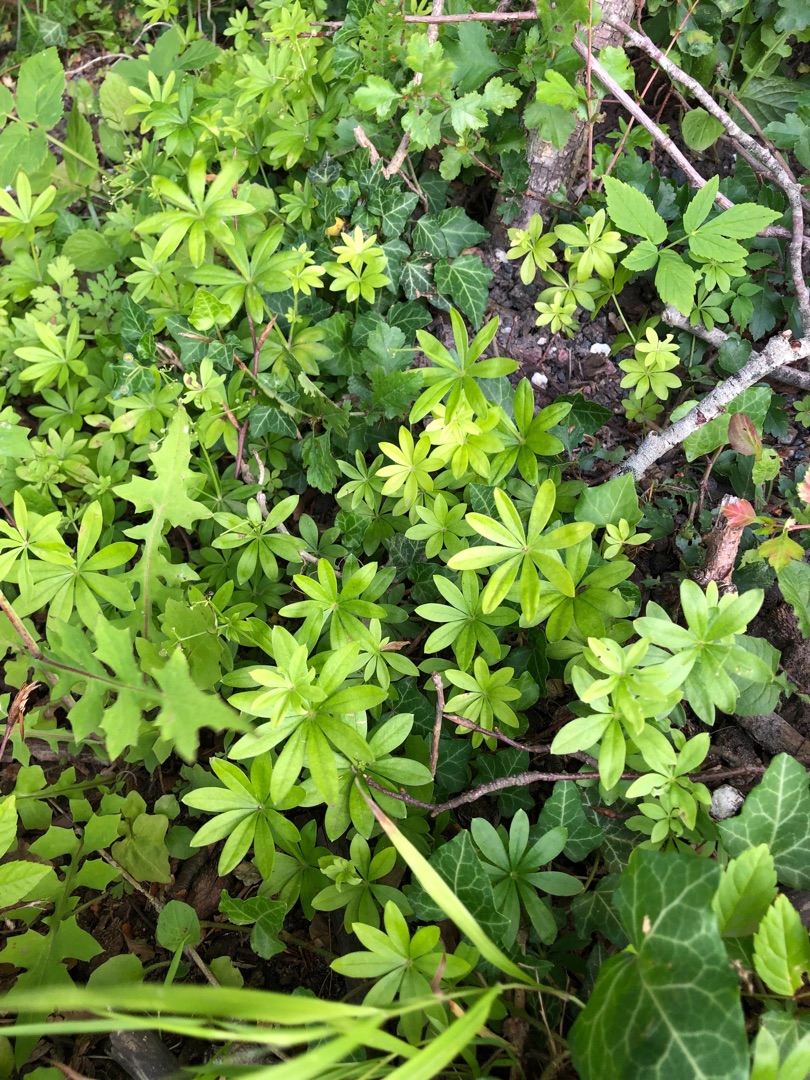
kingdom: Plantae
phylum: Tracheophyta
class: Magnoliopsida
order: Gentianales
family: Rubiaceae
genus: Galium
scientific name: Galium odoratum
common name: Skovmærke
